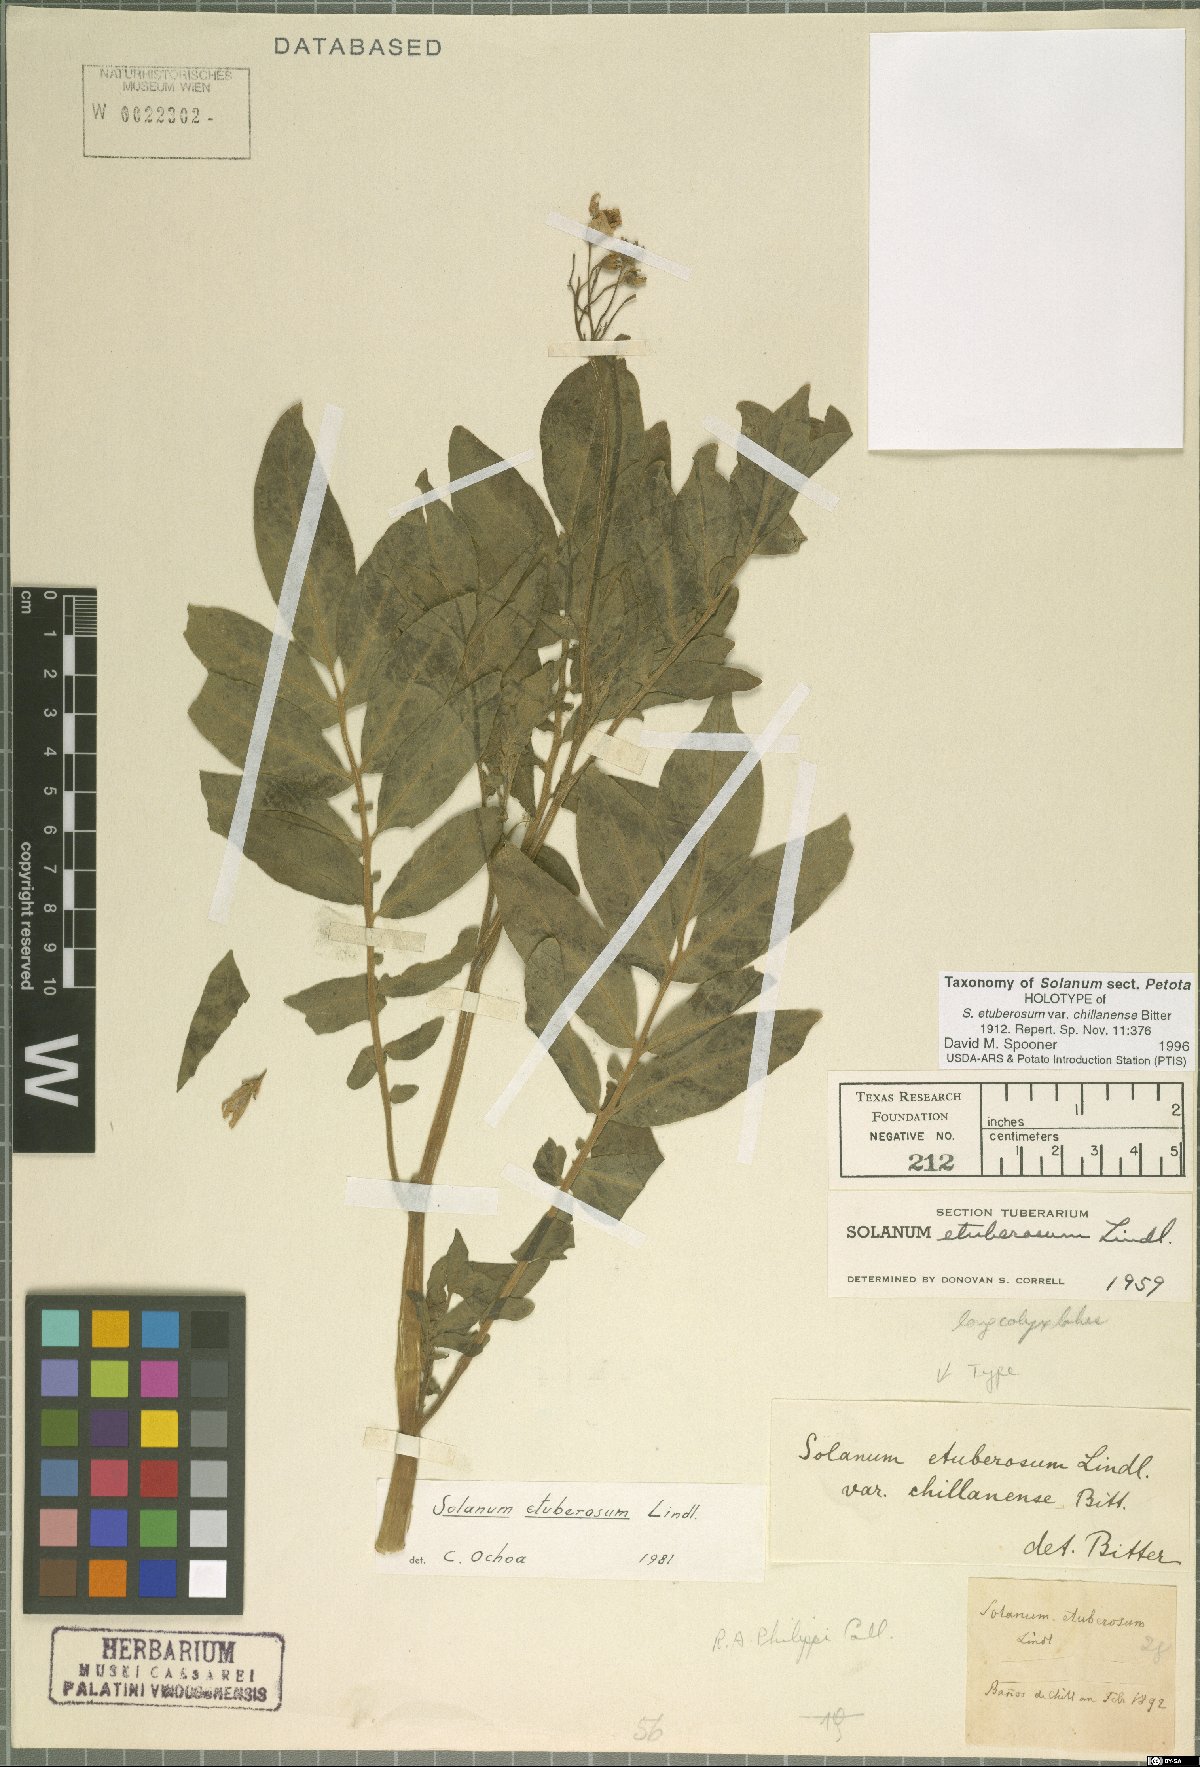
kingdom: Plantae
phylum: Tracheophyta
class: Magnoliopsida
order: Solanales
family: Solanaceae
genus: Solanum
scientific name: Solanum etuberosum
